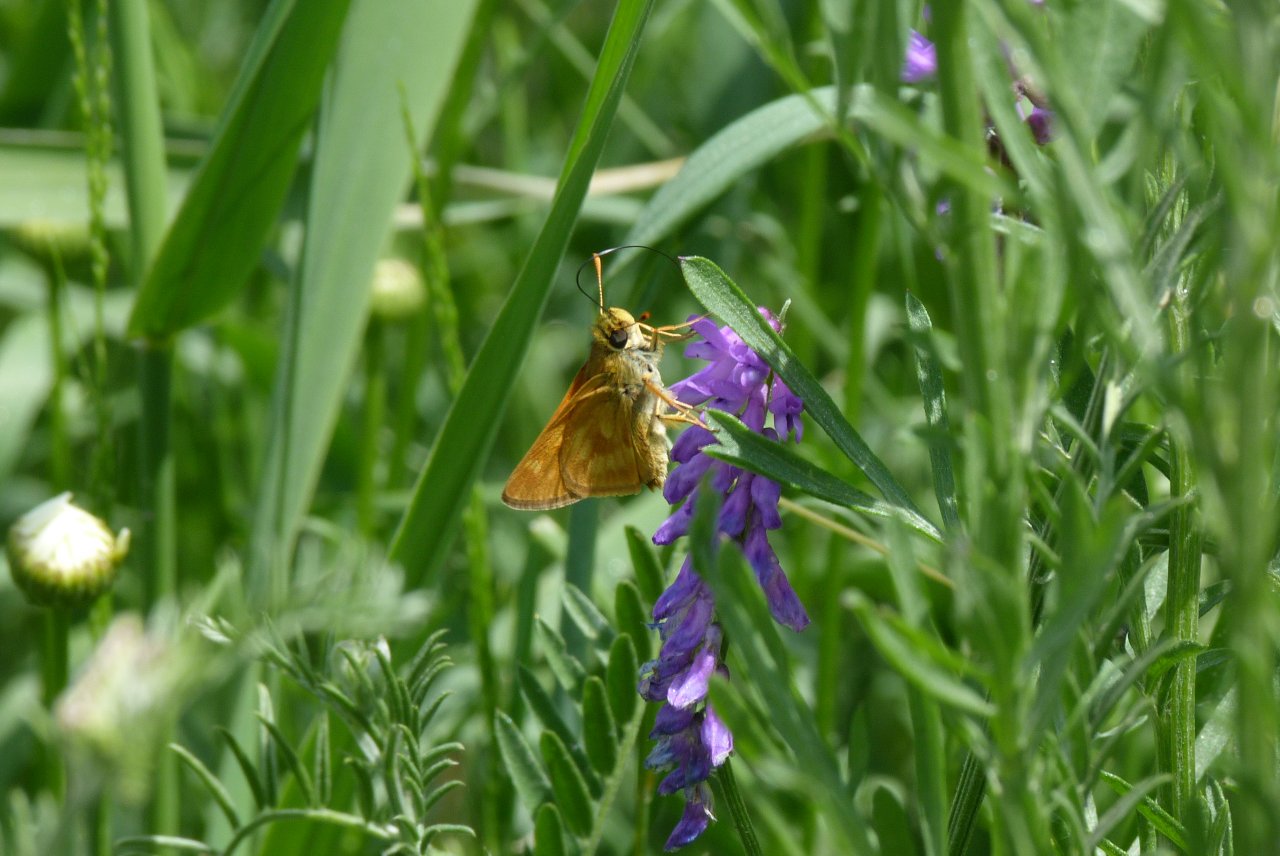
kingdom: Animalia
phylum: Arthropoda
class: Insecta
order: Lepidoptera
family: Hesperiidae
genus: Polites
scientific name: Polites
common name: Long Dash Skipper
